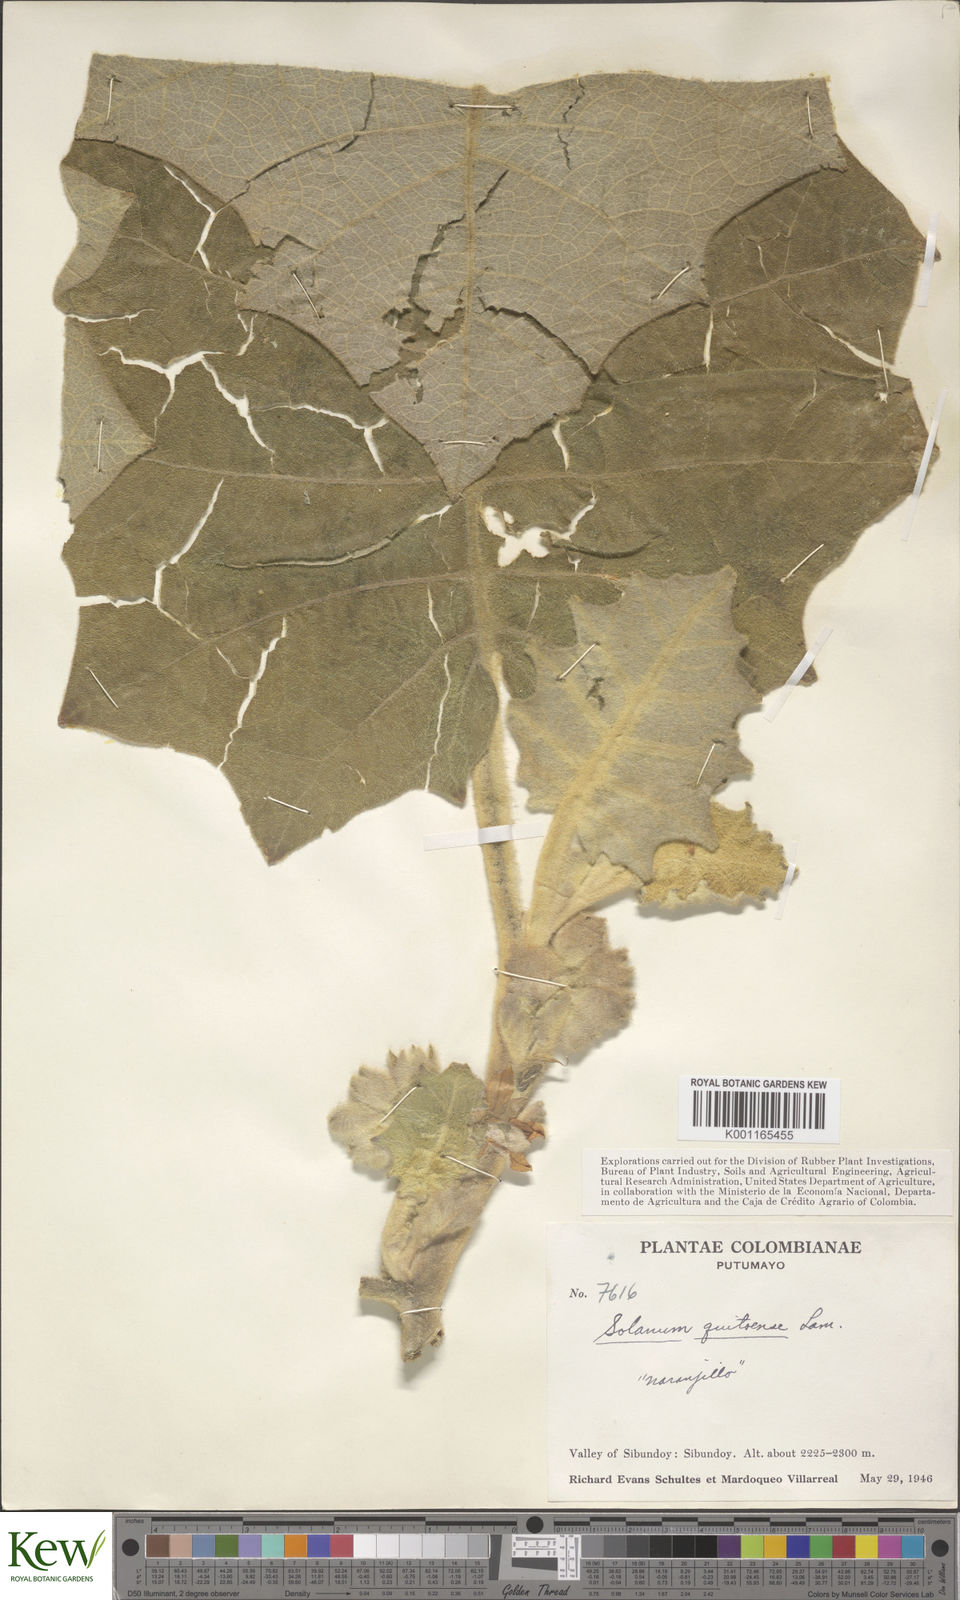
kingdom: Plantae
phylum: Tracheophyta
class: Magnoliopsida
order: Solanales
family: Solanaceae
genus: Solanum
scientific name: Solanum quitoense
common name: Quito-orange
